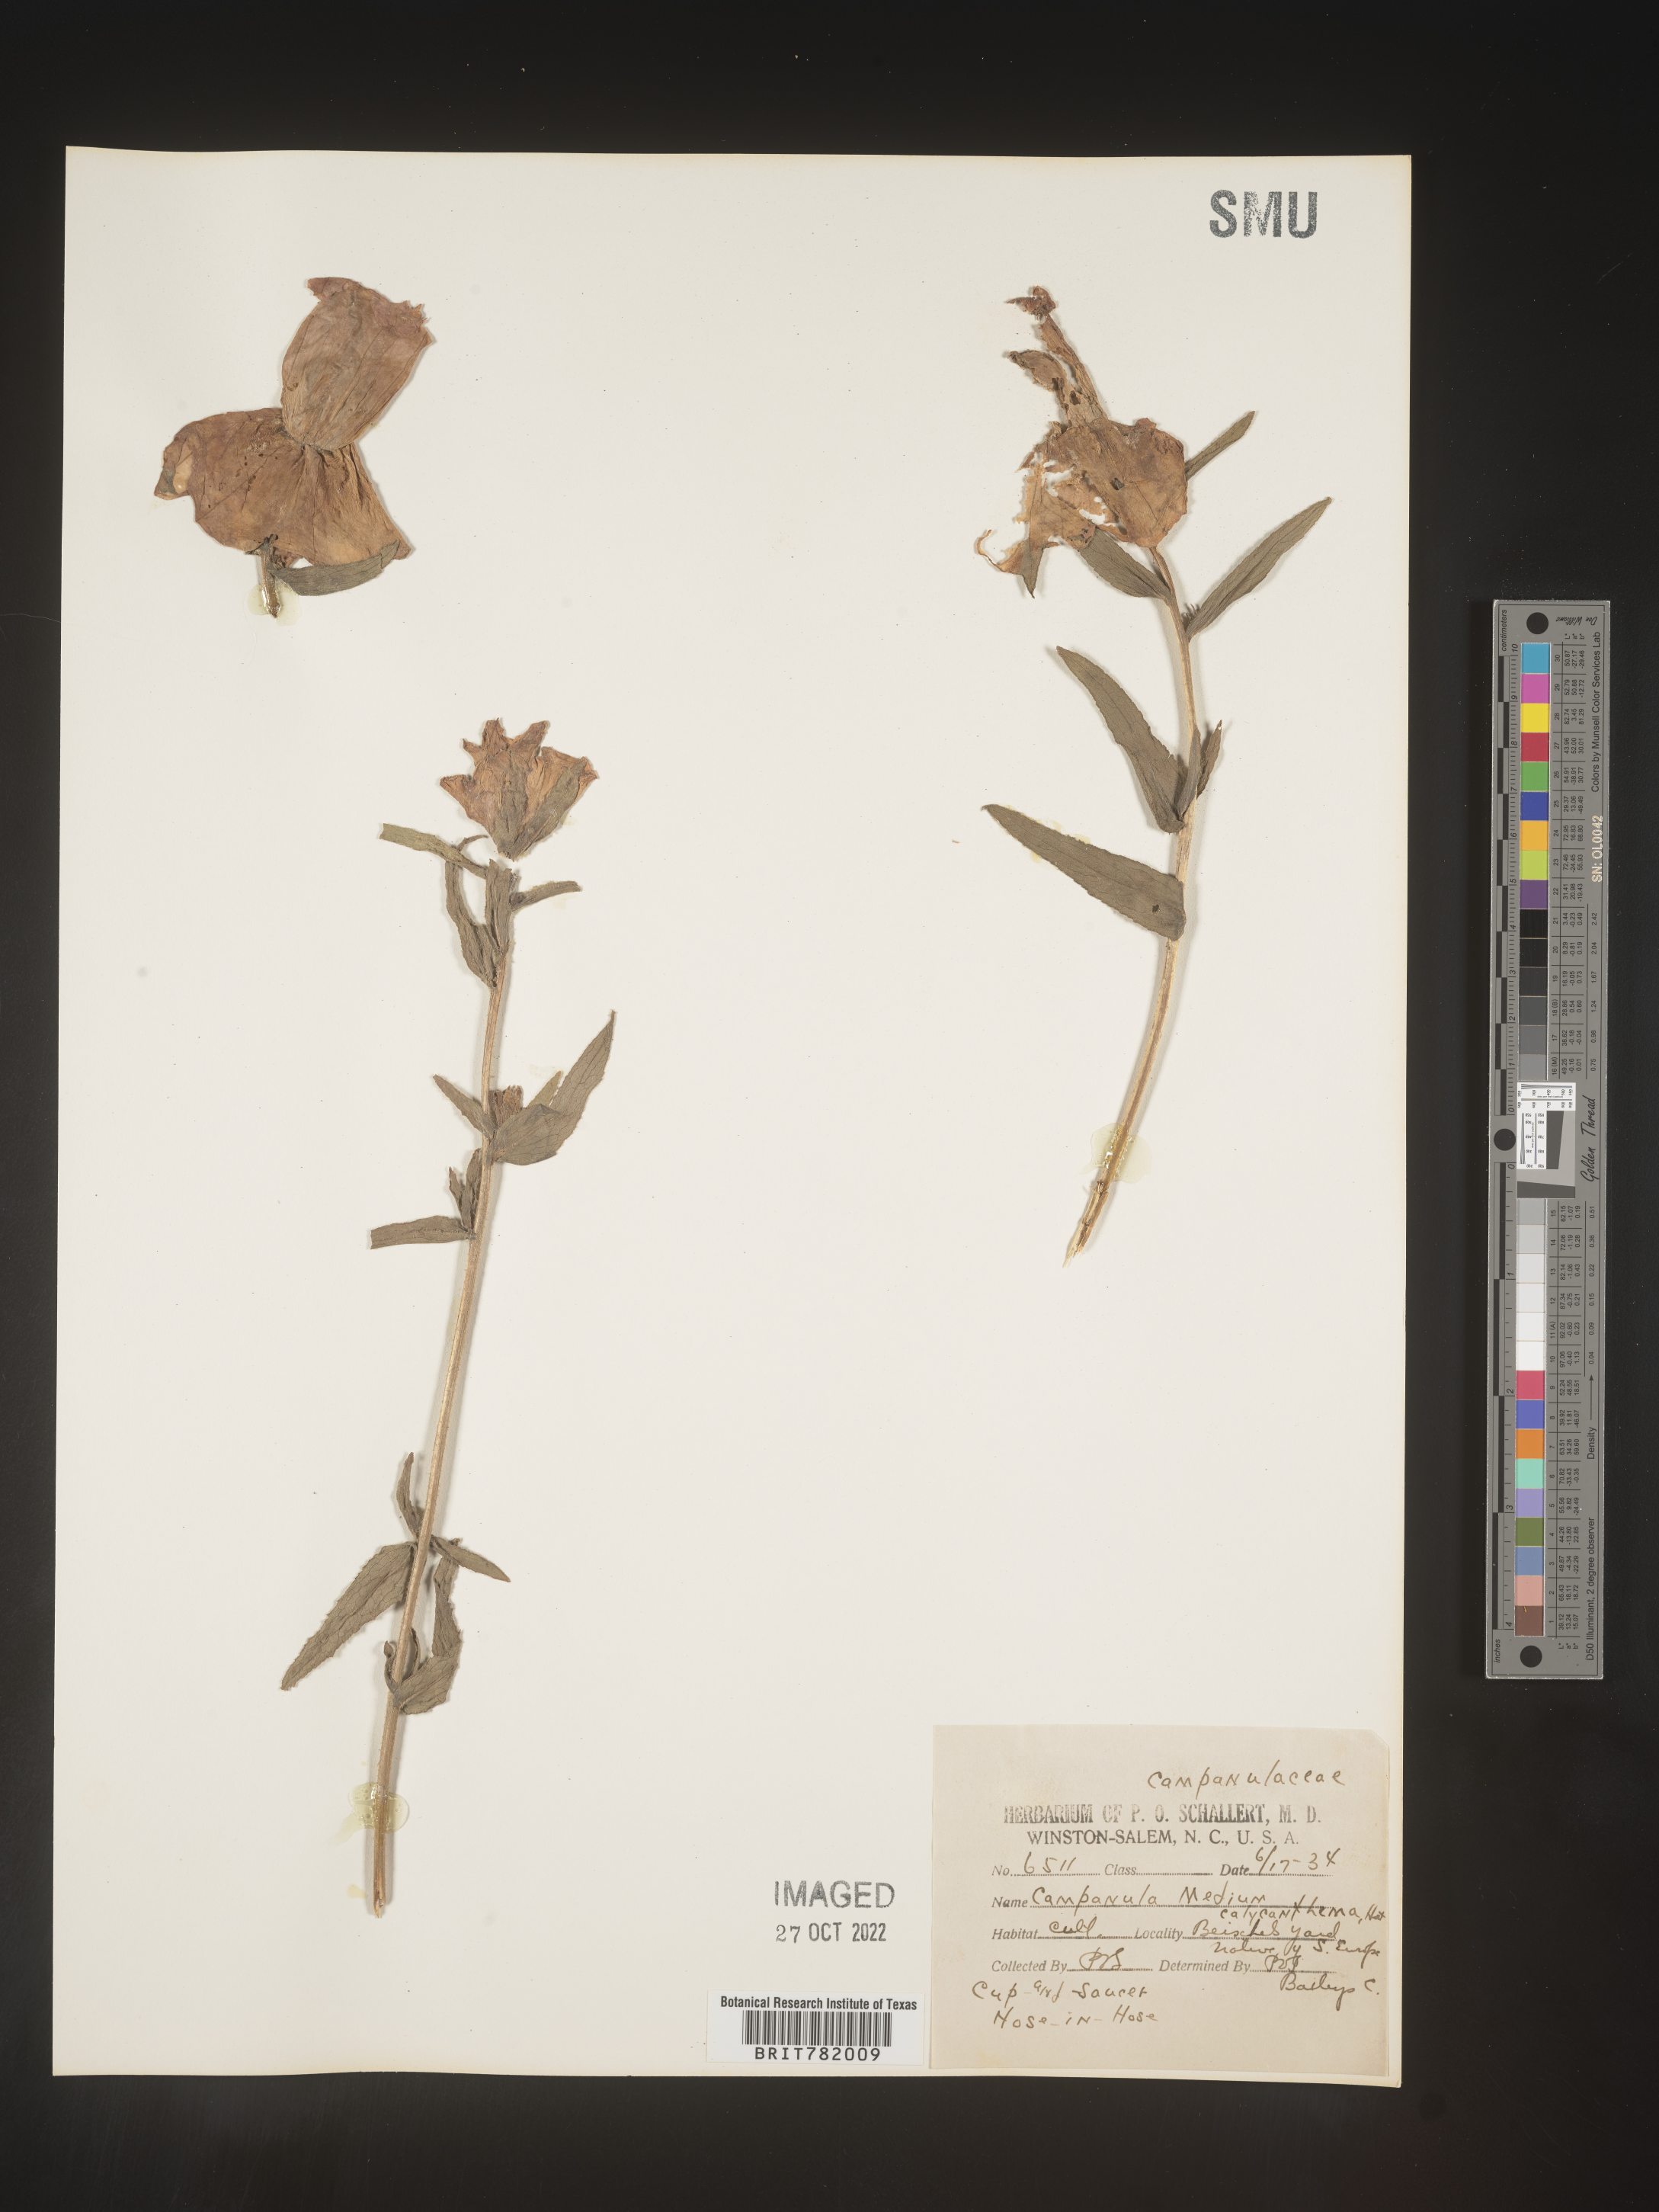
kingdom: Plantae
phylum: Tracheophyta
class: Magnoliopsida
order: Asterales
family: Campanulaceae
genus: Campanula
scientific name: Campanula
